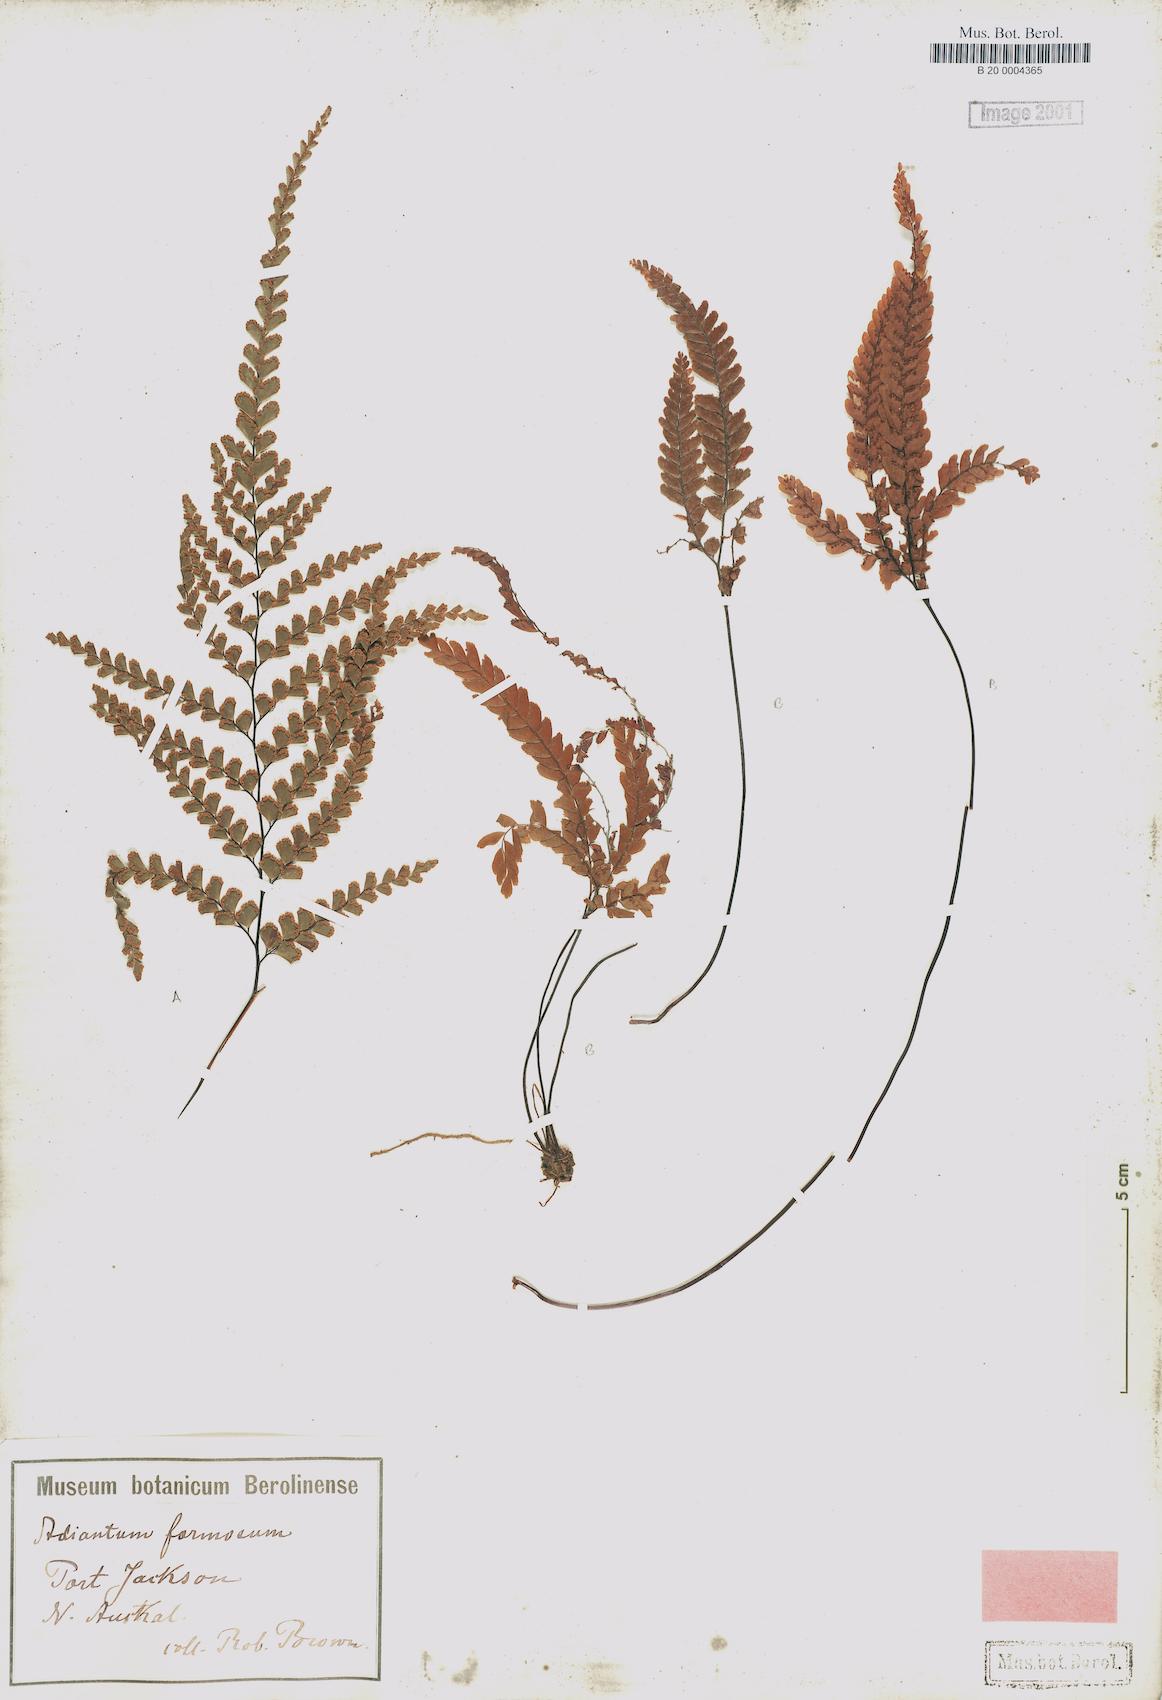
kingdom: Plantae
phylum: Tracheophyta
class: Polypodiopsida
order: Polypodiales
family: Pteridaceae
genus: Adiantum
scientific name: Adiantum formosum
